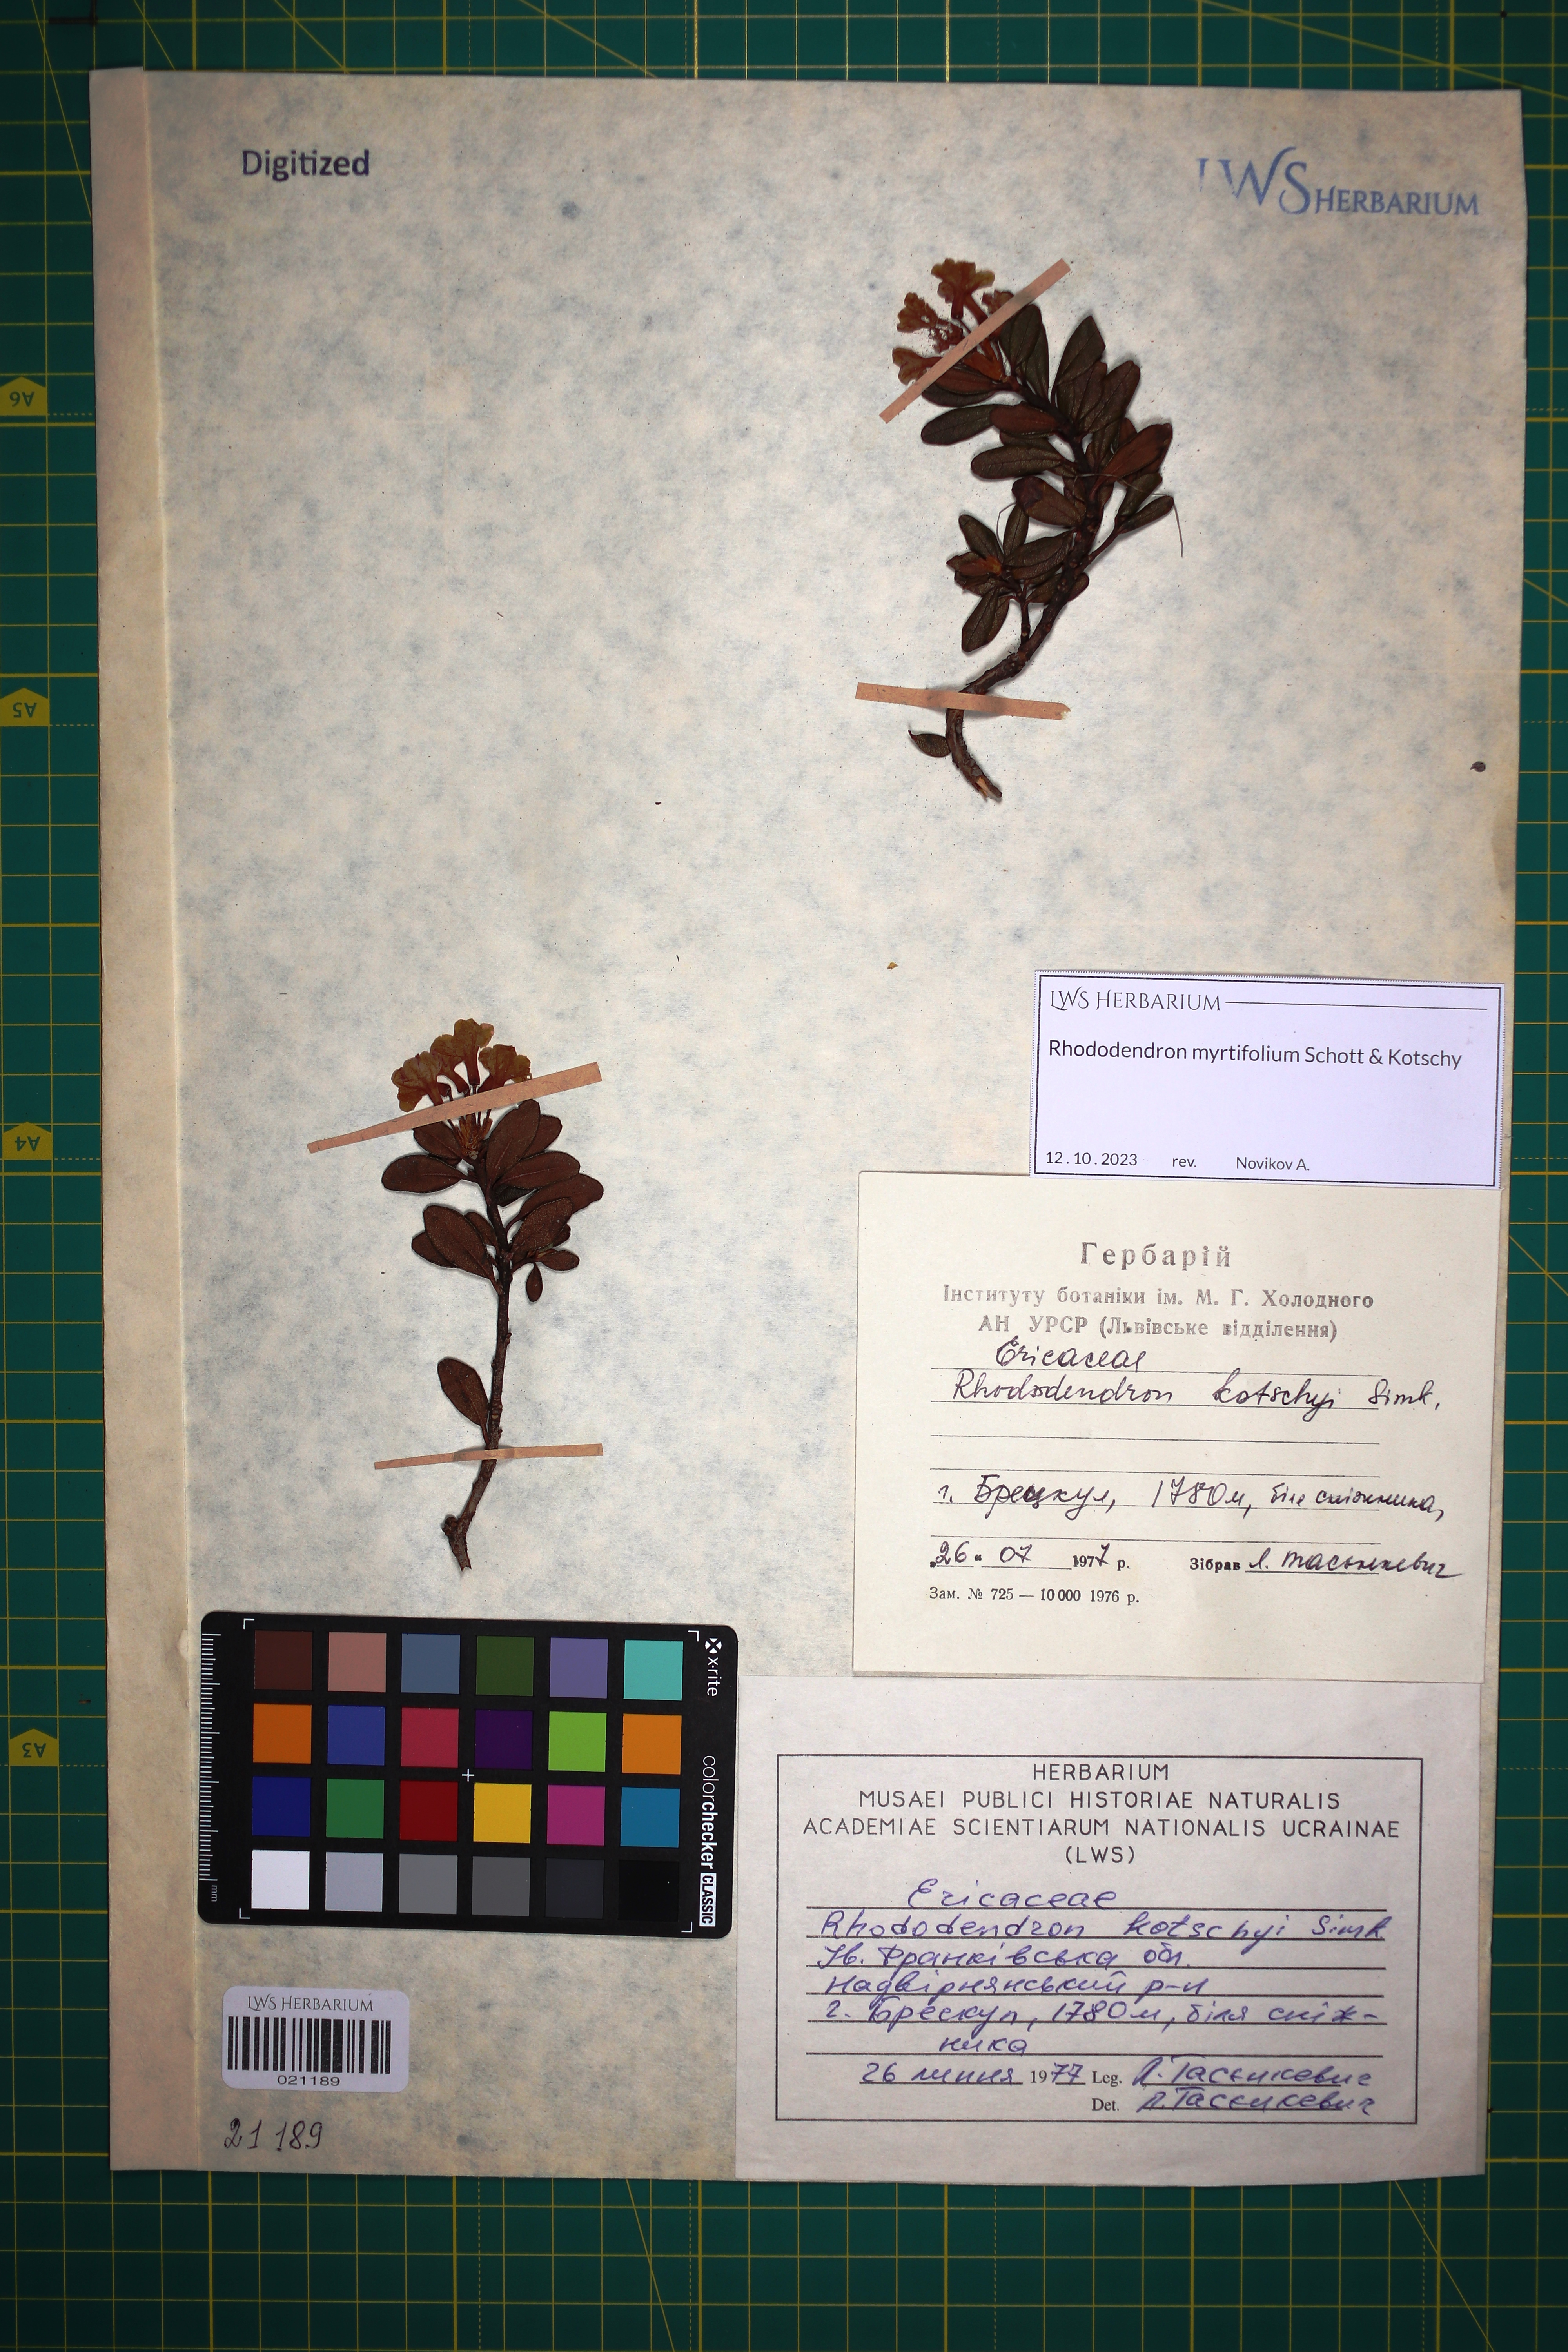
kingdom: Plantae
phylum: Tracheophyta
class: Magnoliopsida
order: Ericales
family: Ericaceae
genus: Rhododendron
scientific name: Rhododendron kotschyi
